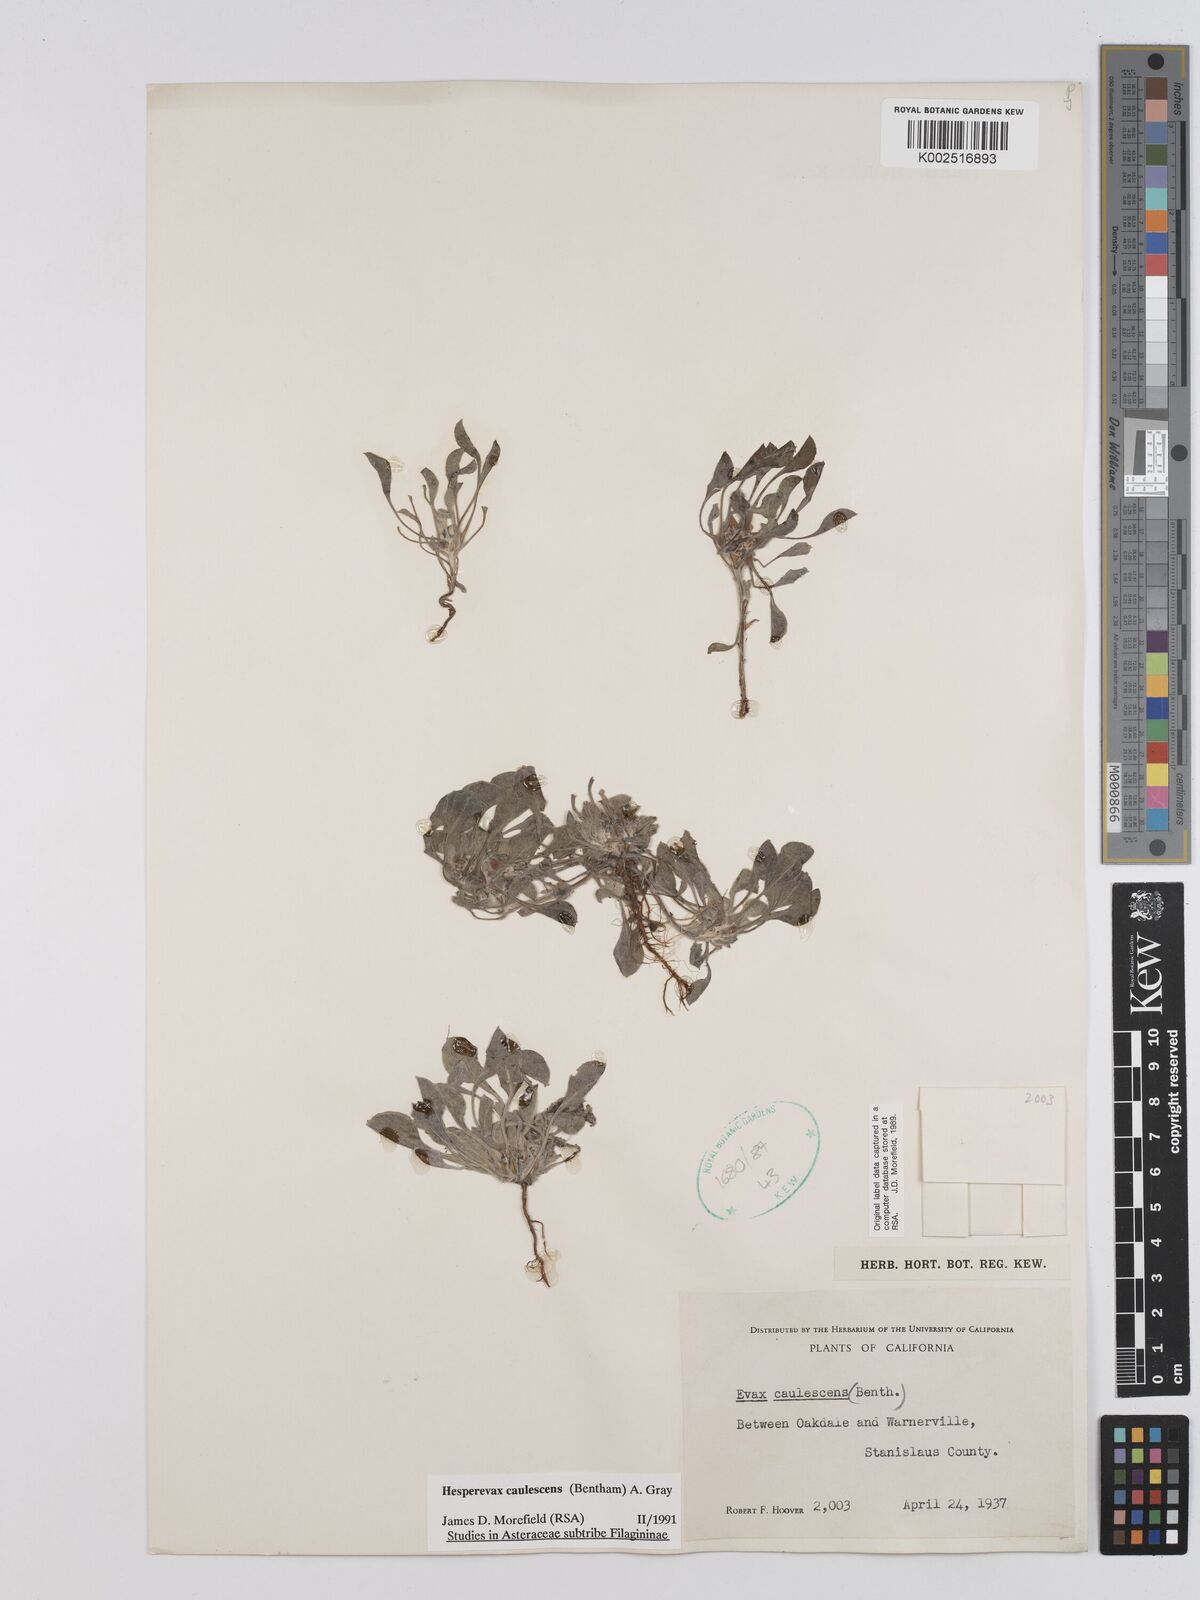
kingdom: Plantae
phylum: Tracheophyta
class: Magnoliopsida
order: Asterales
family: Asteraceae
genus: Hesperevax
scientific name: Hesperevax caulescens
